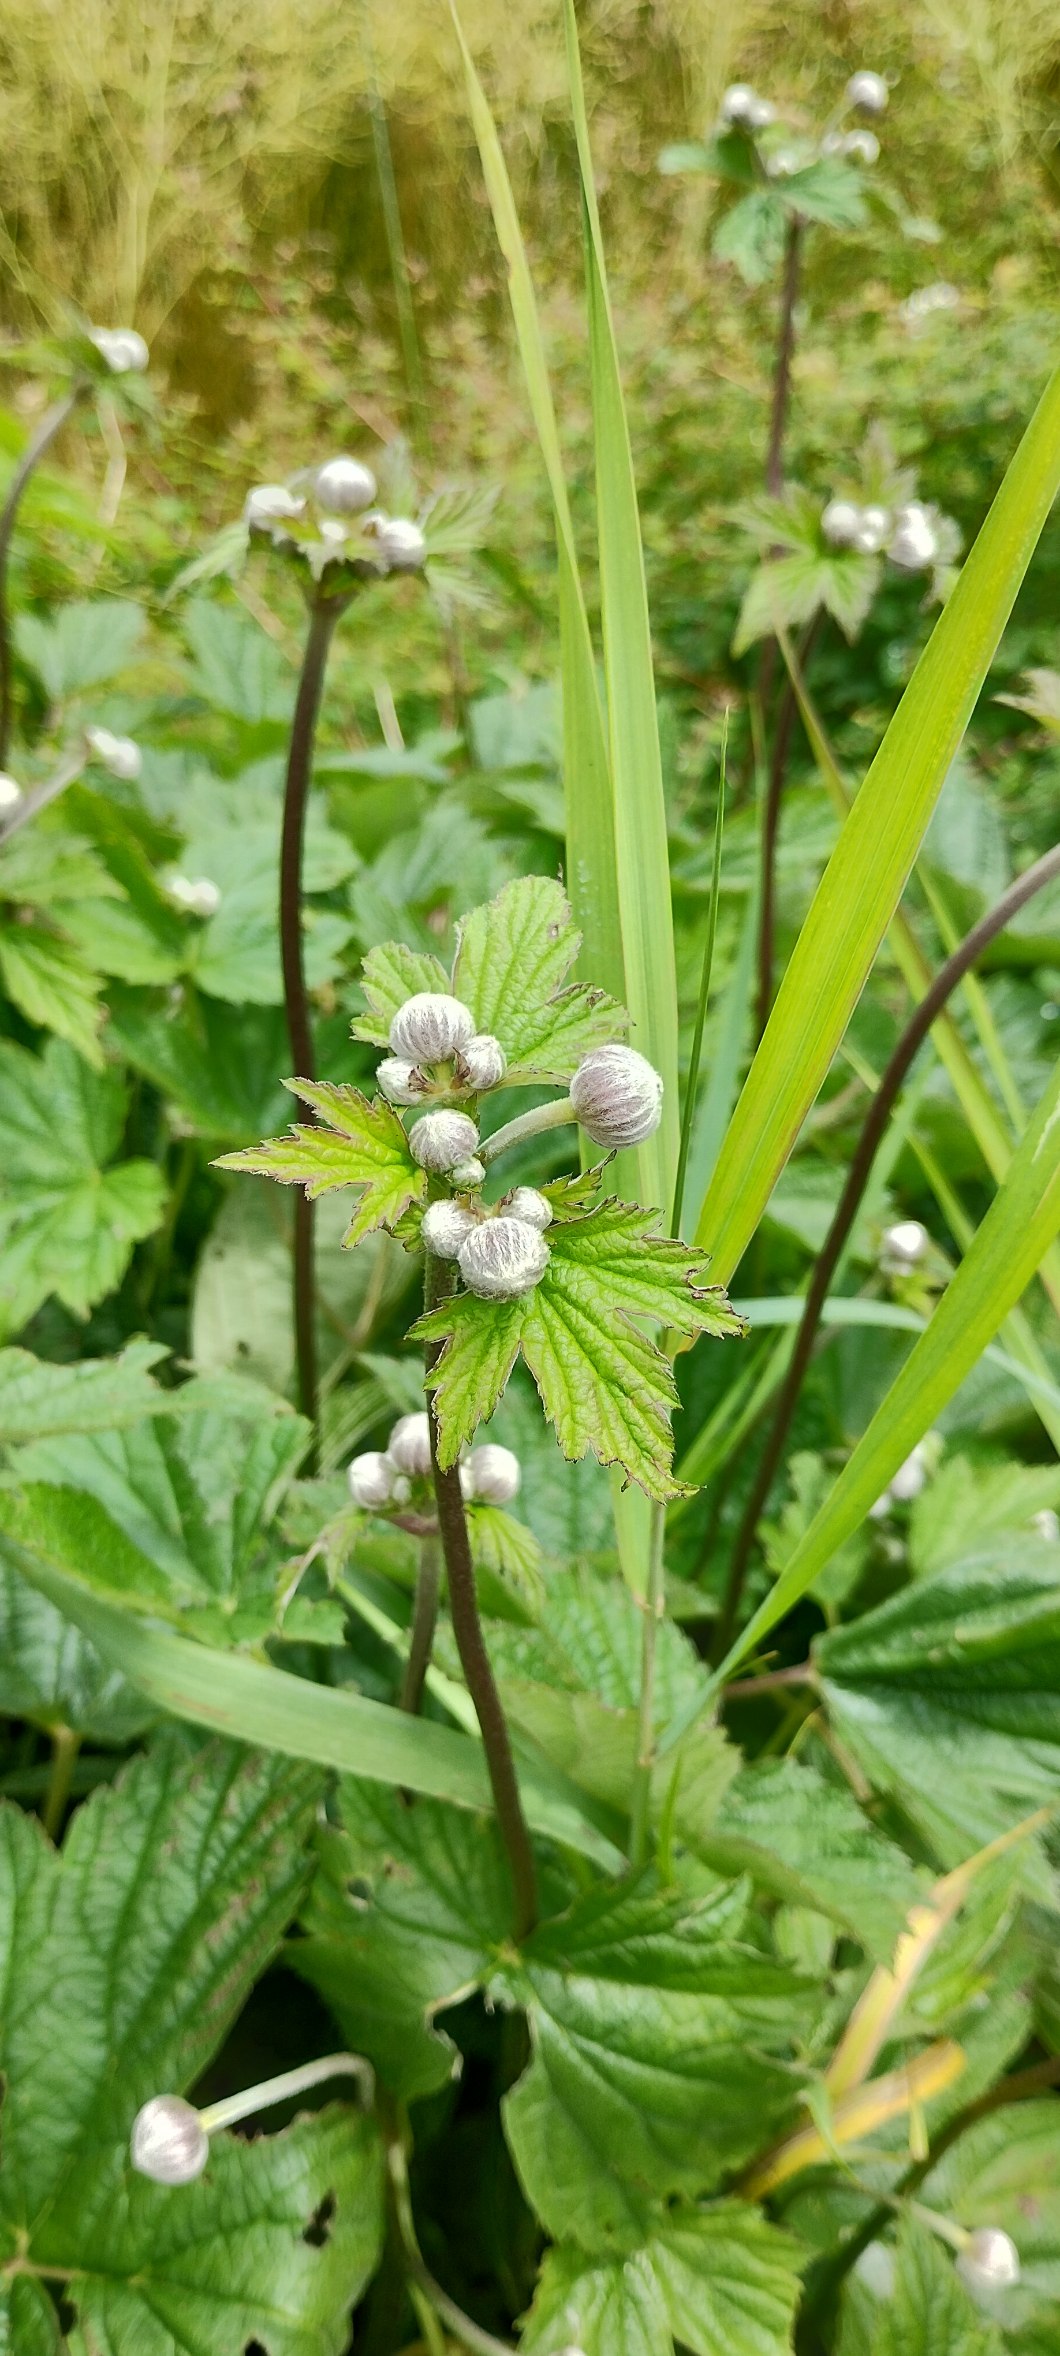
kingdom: Plantae
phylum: Tracheophyta
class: Magnoliopsida
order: Ranunculales
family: Ranunculaceae
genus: Eriocapitella
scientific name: Eriocapitella hupehensis
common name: Høst-anemone
